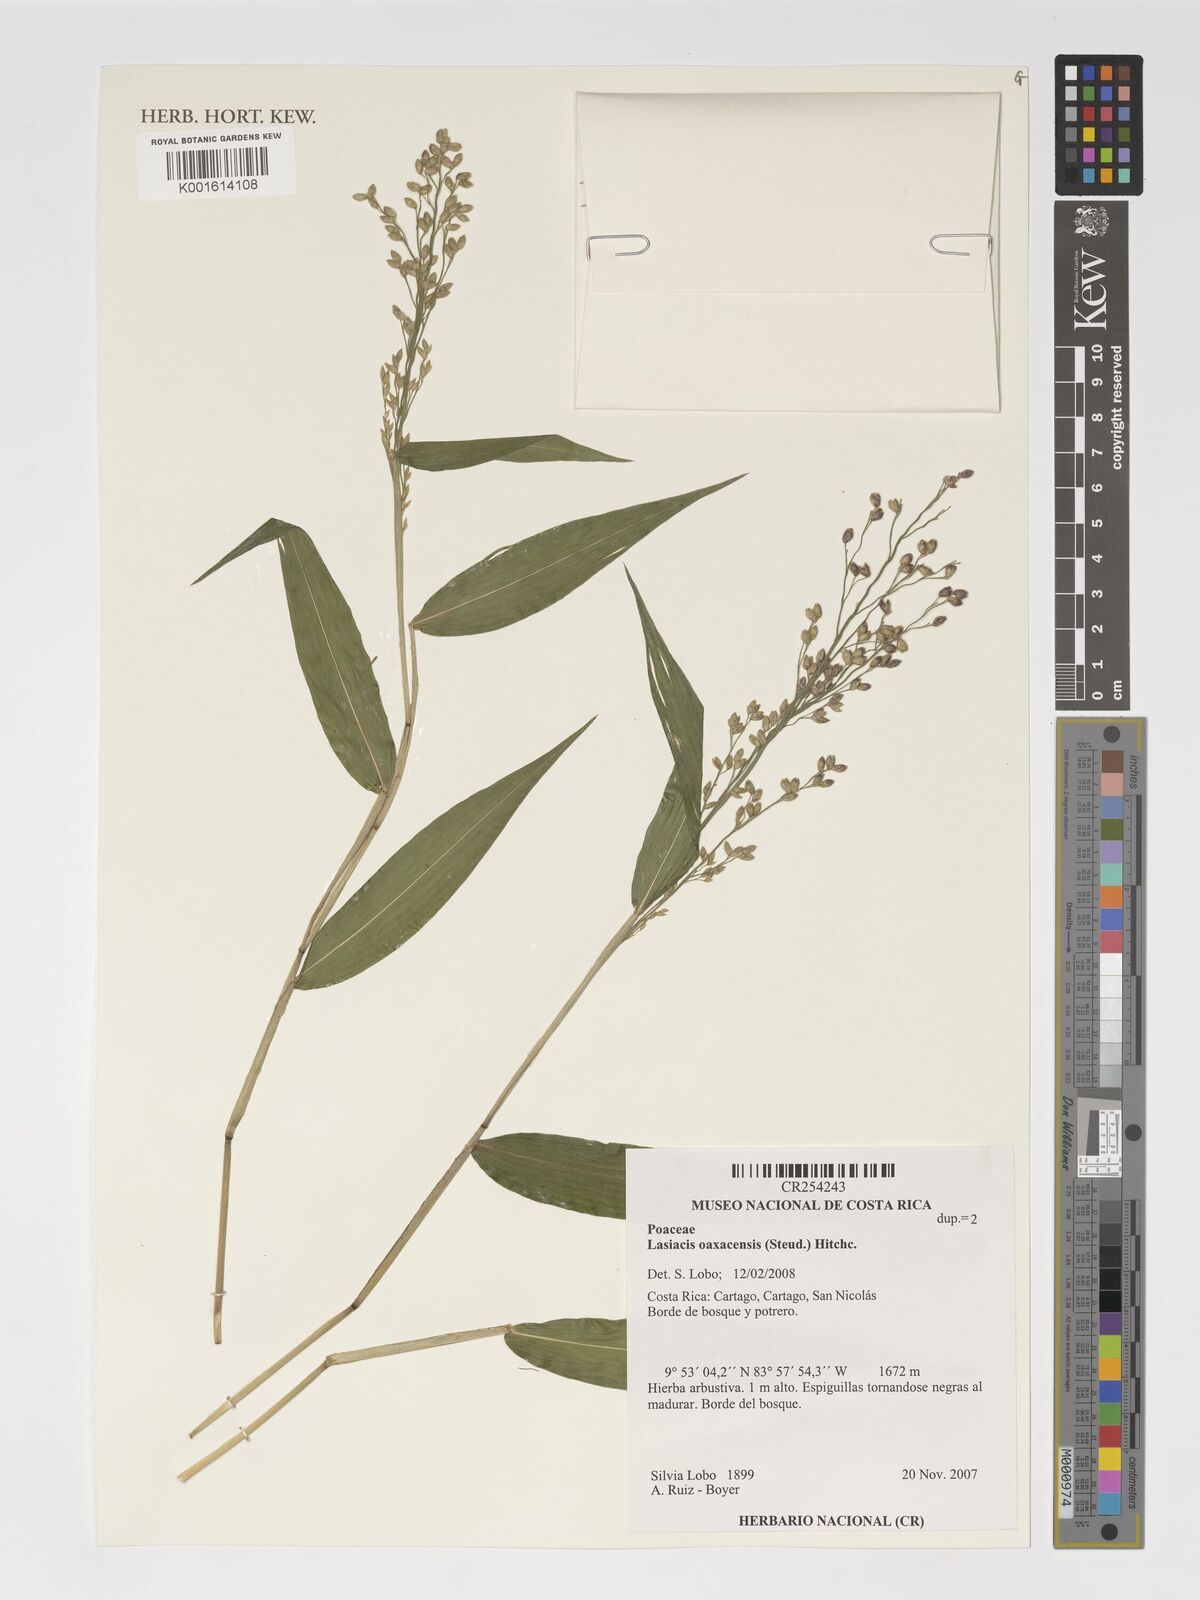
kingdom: Plantae
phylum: Tracheophyta
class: Liliopsida
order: Poales
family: Poaceae
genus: Lasiacis
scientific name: Lasiacis oaxacensis
